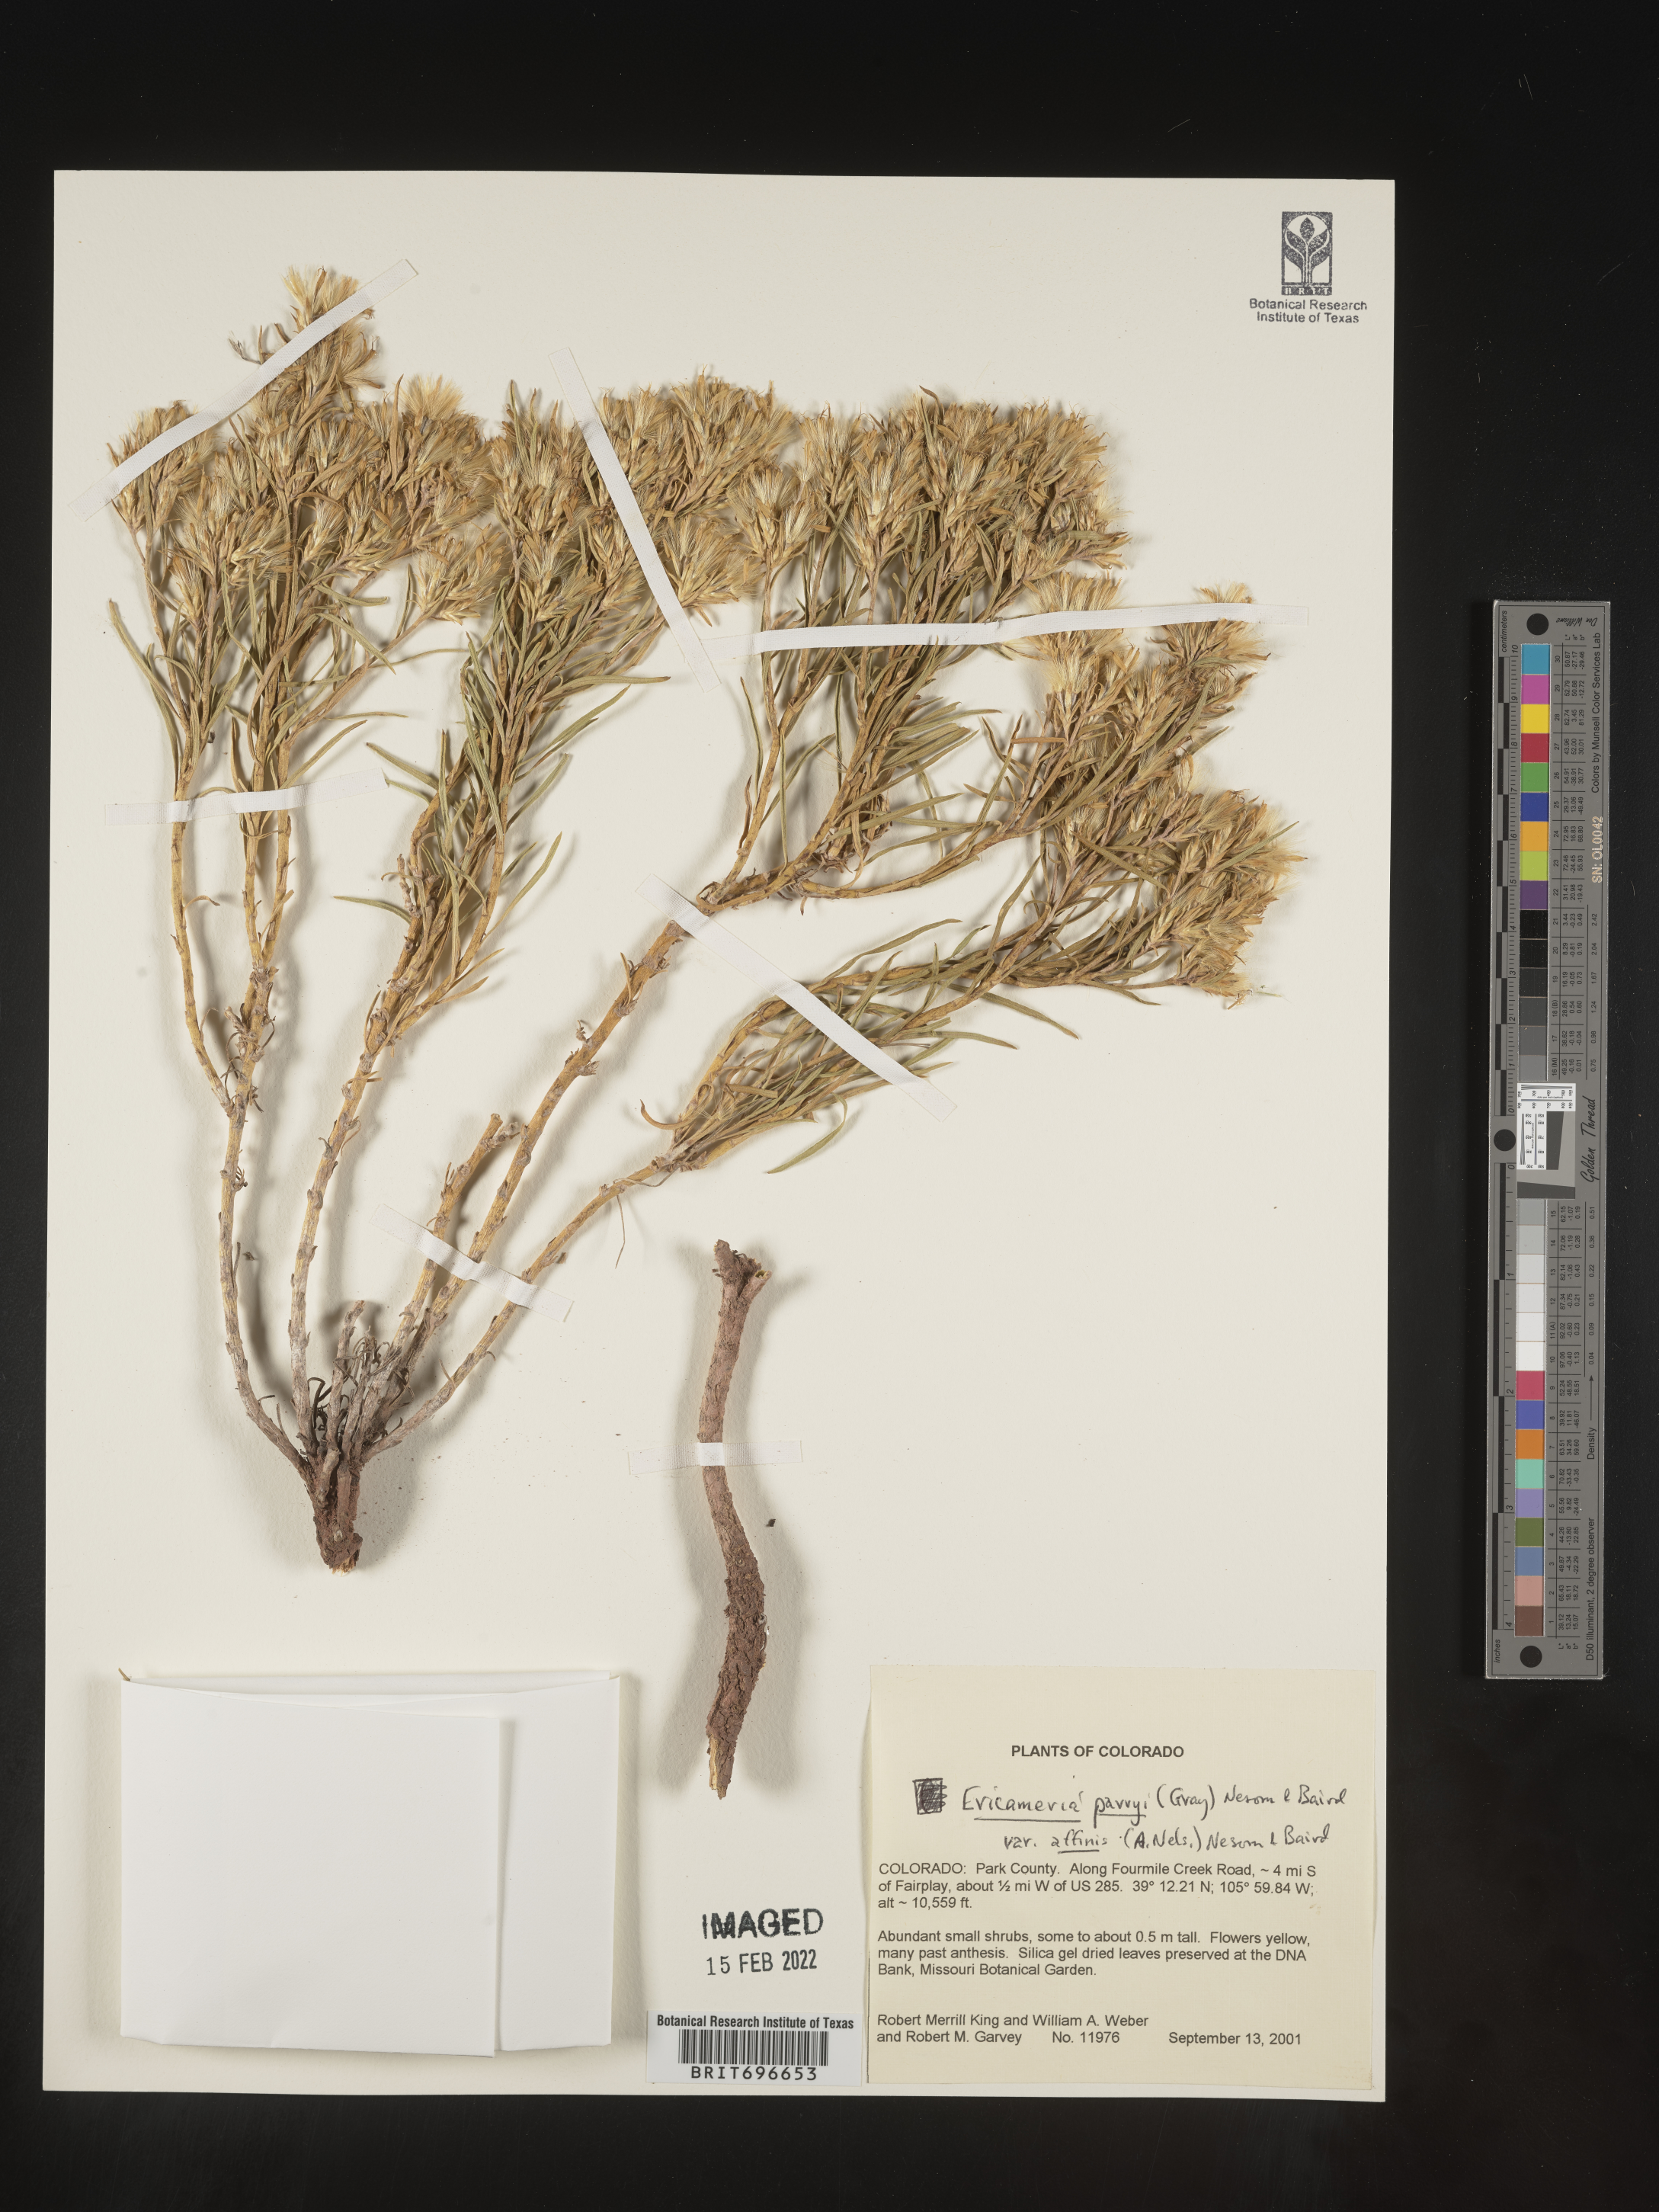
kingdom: Plantae
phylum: Tracheophyta
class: Magnoliopsida
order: Asterales
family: Asteraceae
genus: Ericameria
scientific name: Ericameria parryi
